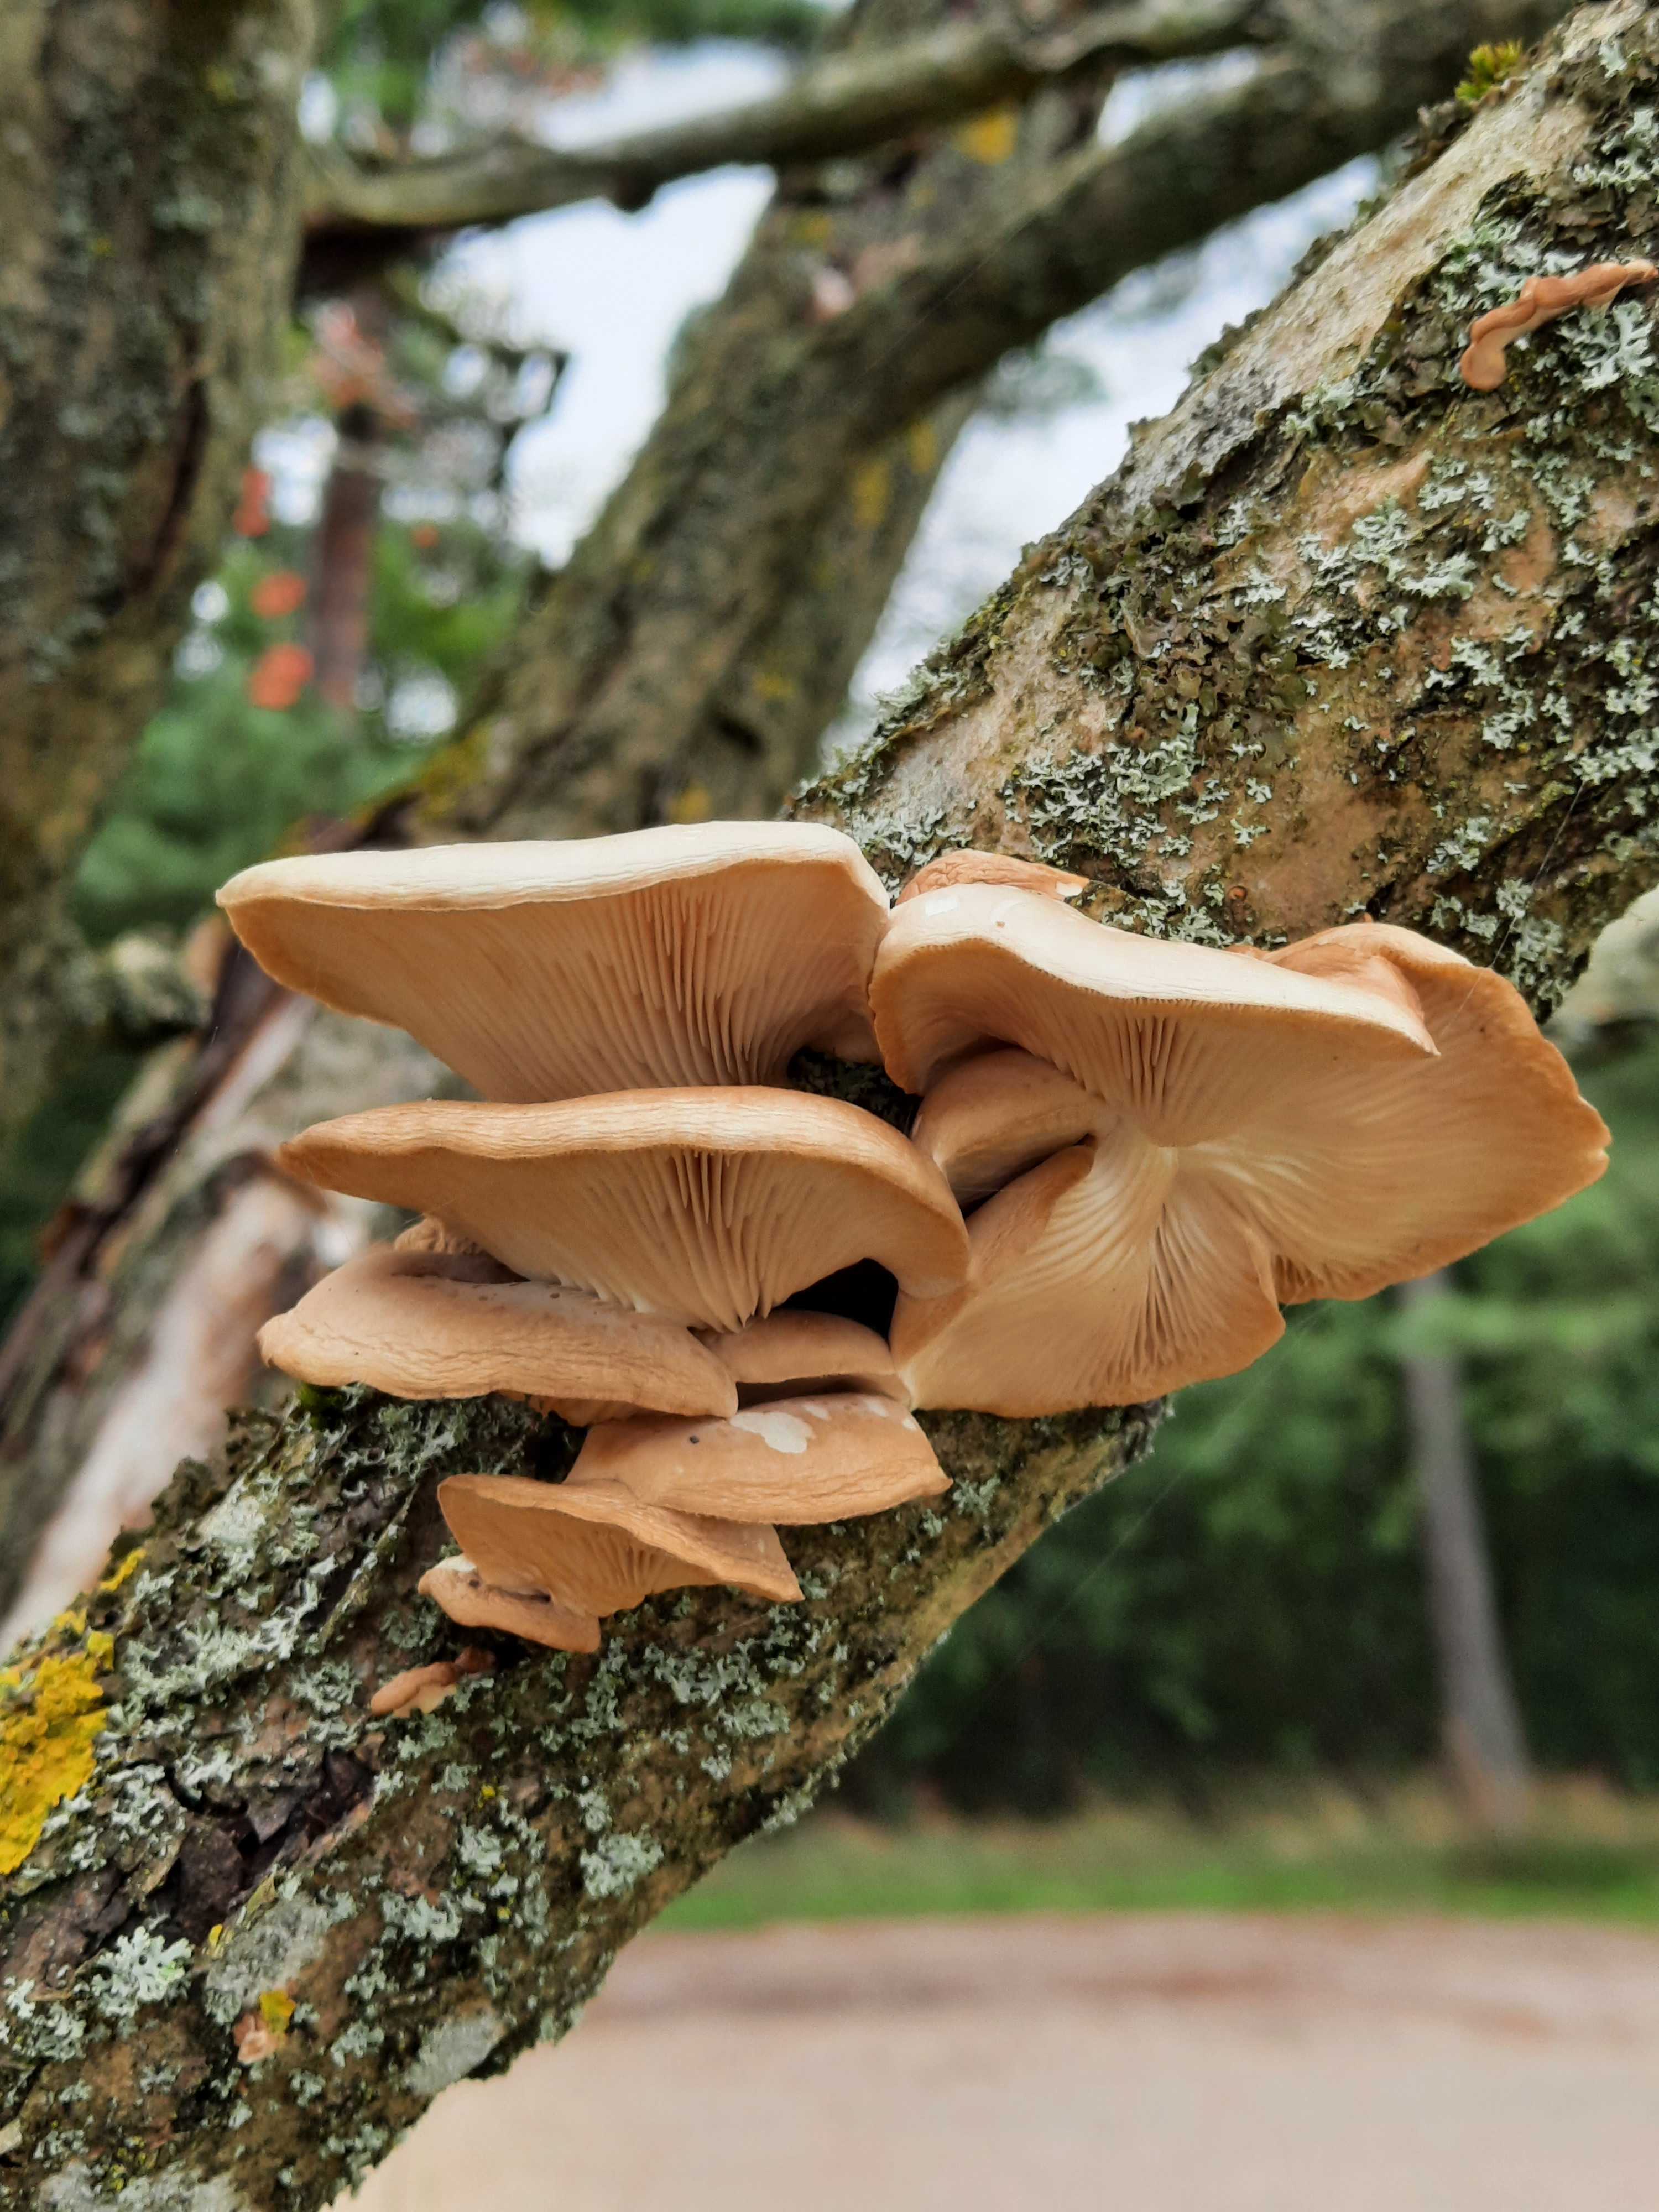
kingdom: Fungi
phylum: Basidiomycota
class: Agaricomycetes
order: Agaricales
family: Pleurotaceae
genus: Pleurotus
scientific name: Pleurotus pulmonarius
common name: sommer-østershat
